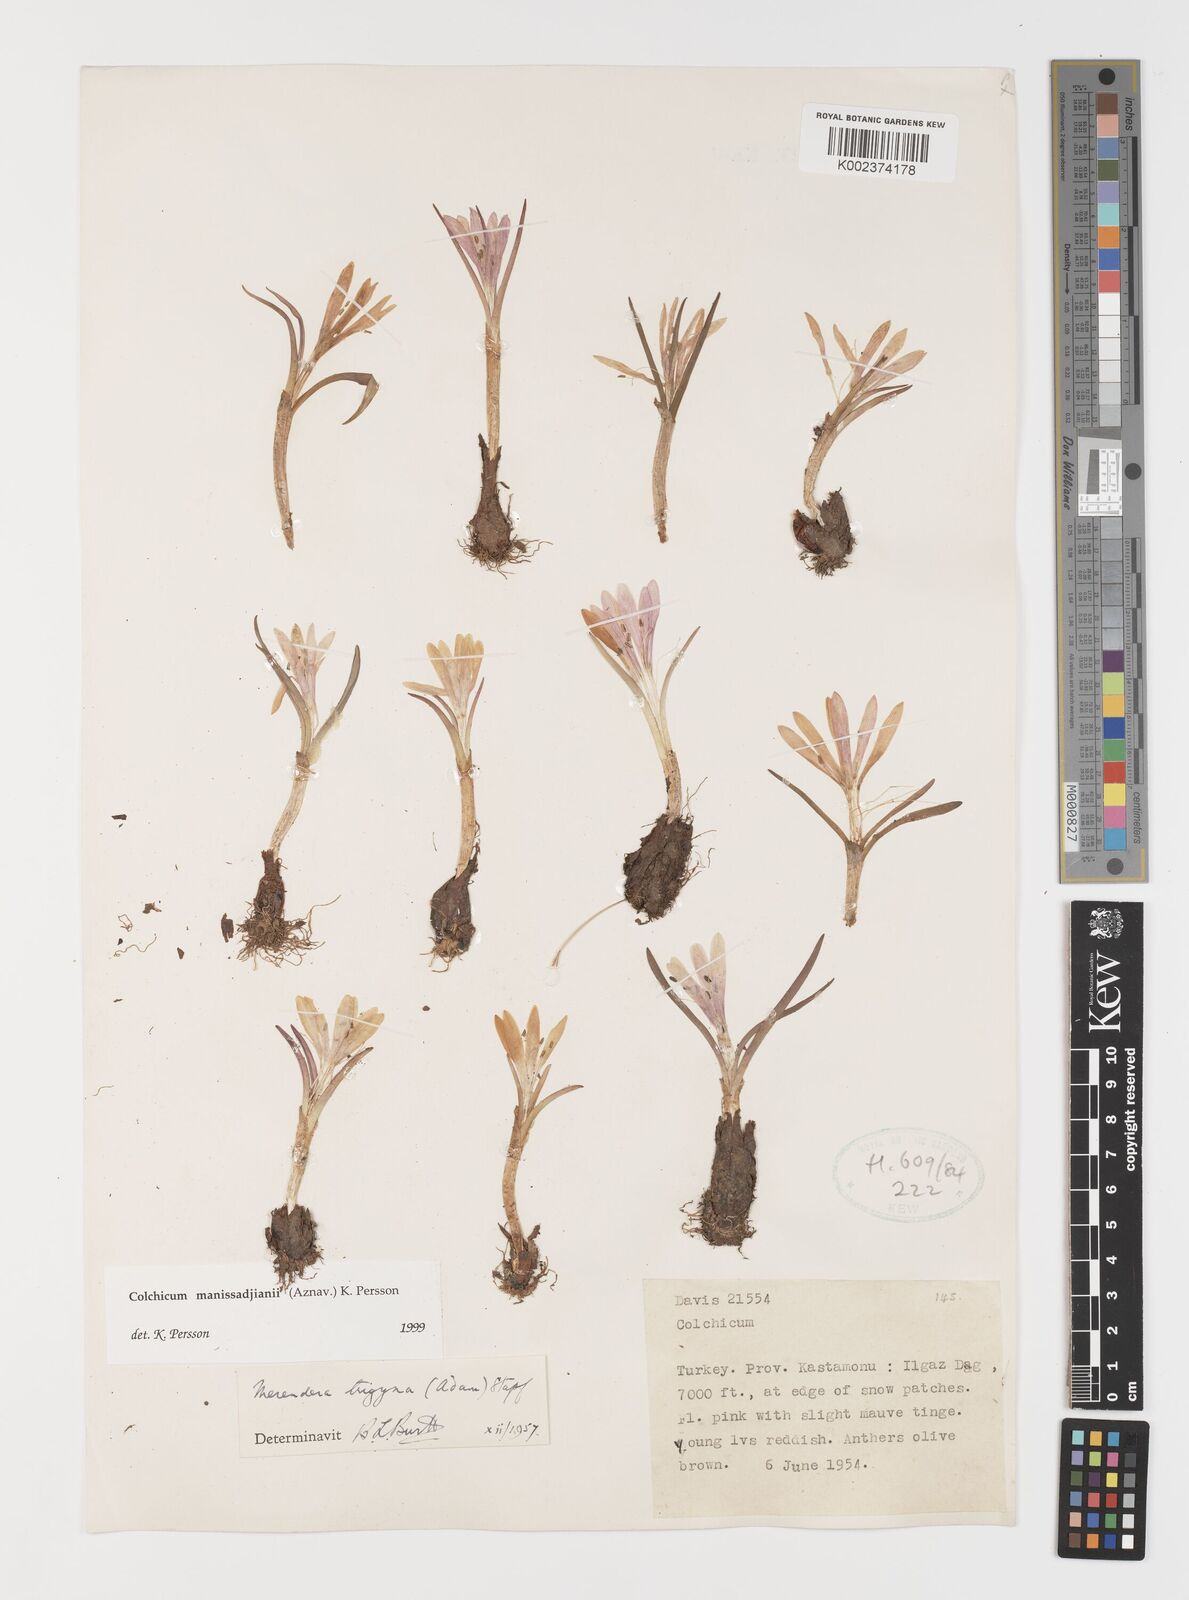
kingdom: Plantae
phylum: Tracheophyta
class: Liliopsida
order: Liliales
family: Colchicaceae
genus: Colchicum
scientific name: Colchicum manissadjianii
